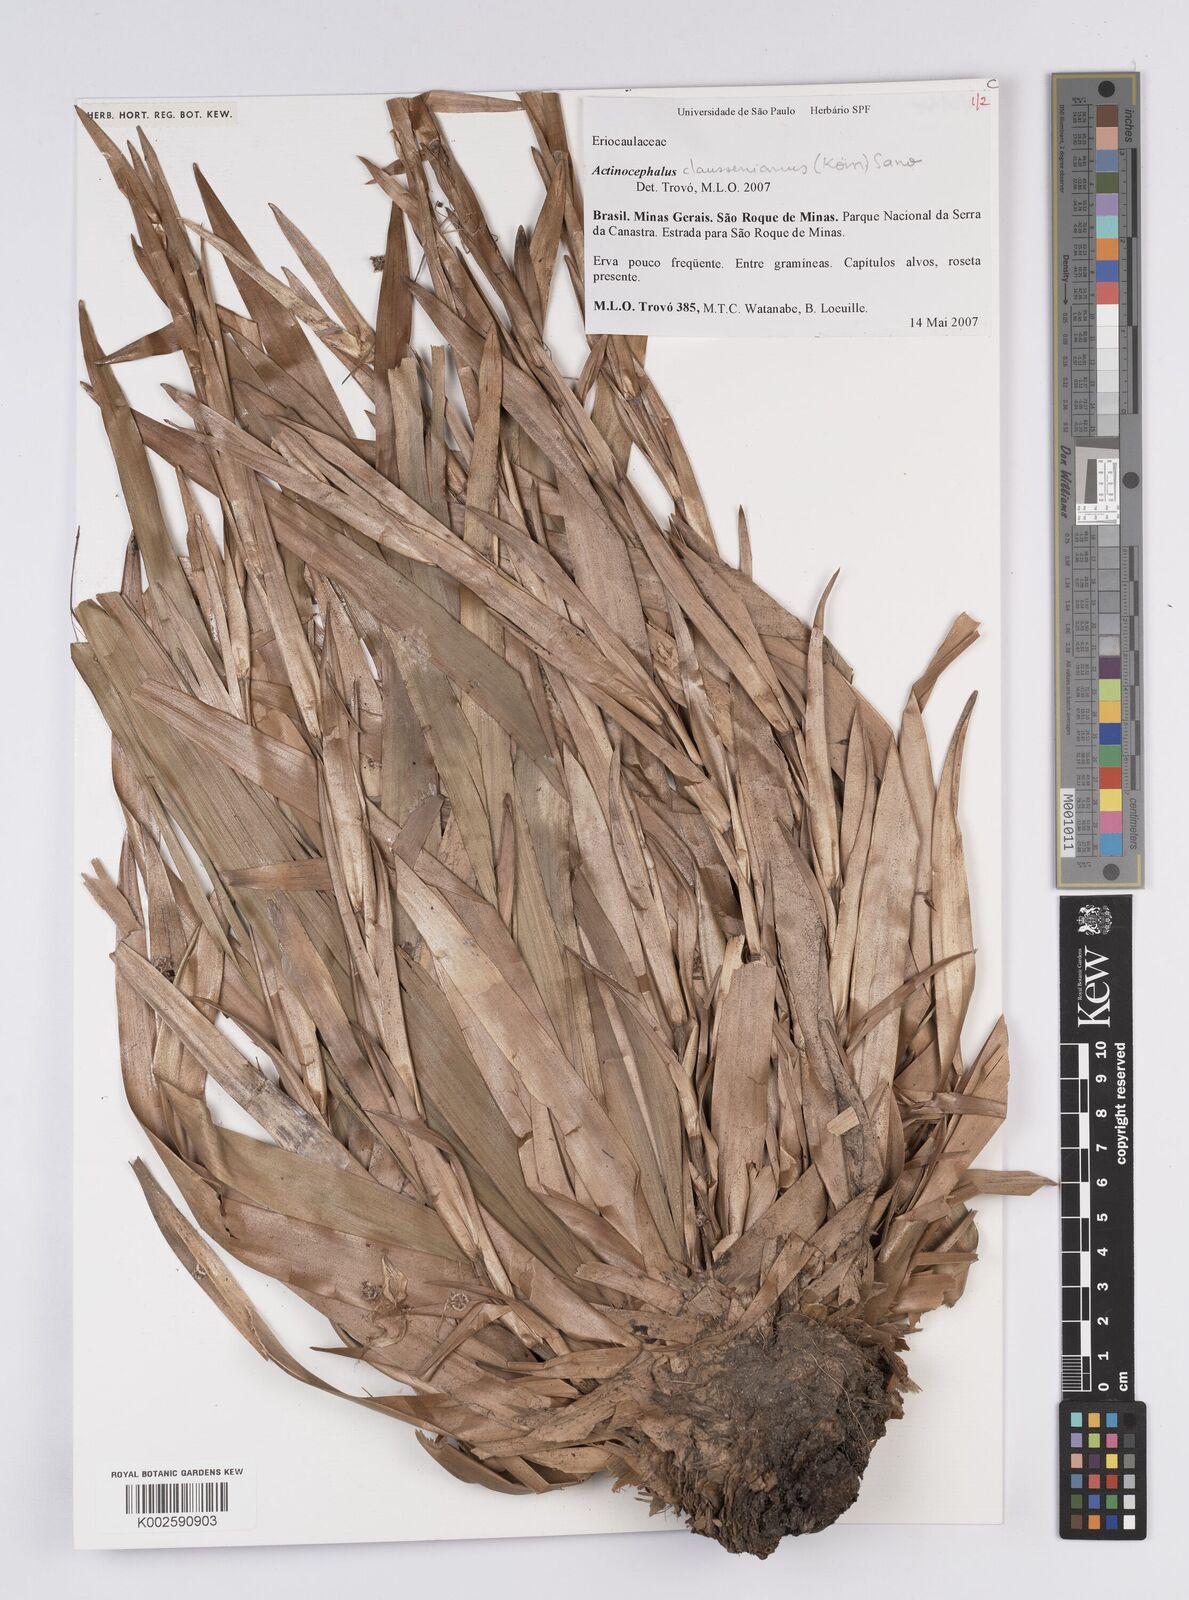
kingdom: Plantae
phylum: Tracheophyta
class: Liliopsida
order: Poales
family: Eriocaulaceae
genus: Paepalanthus
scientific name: Paepalanthus claussenianus
